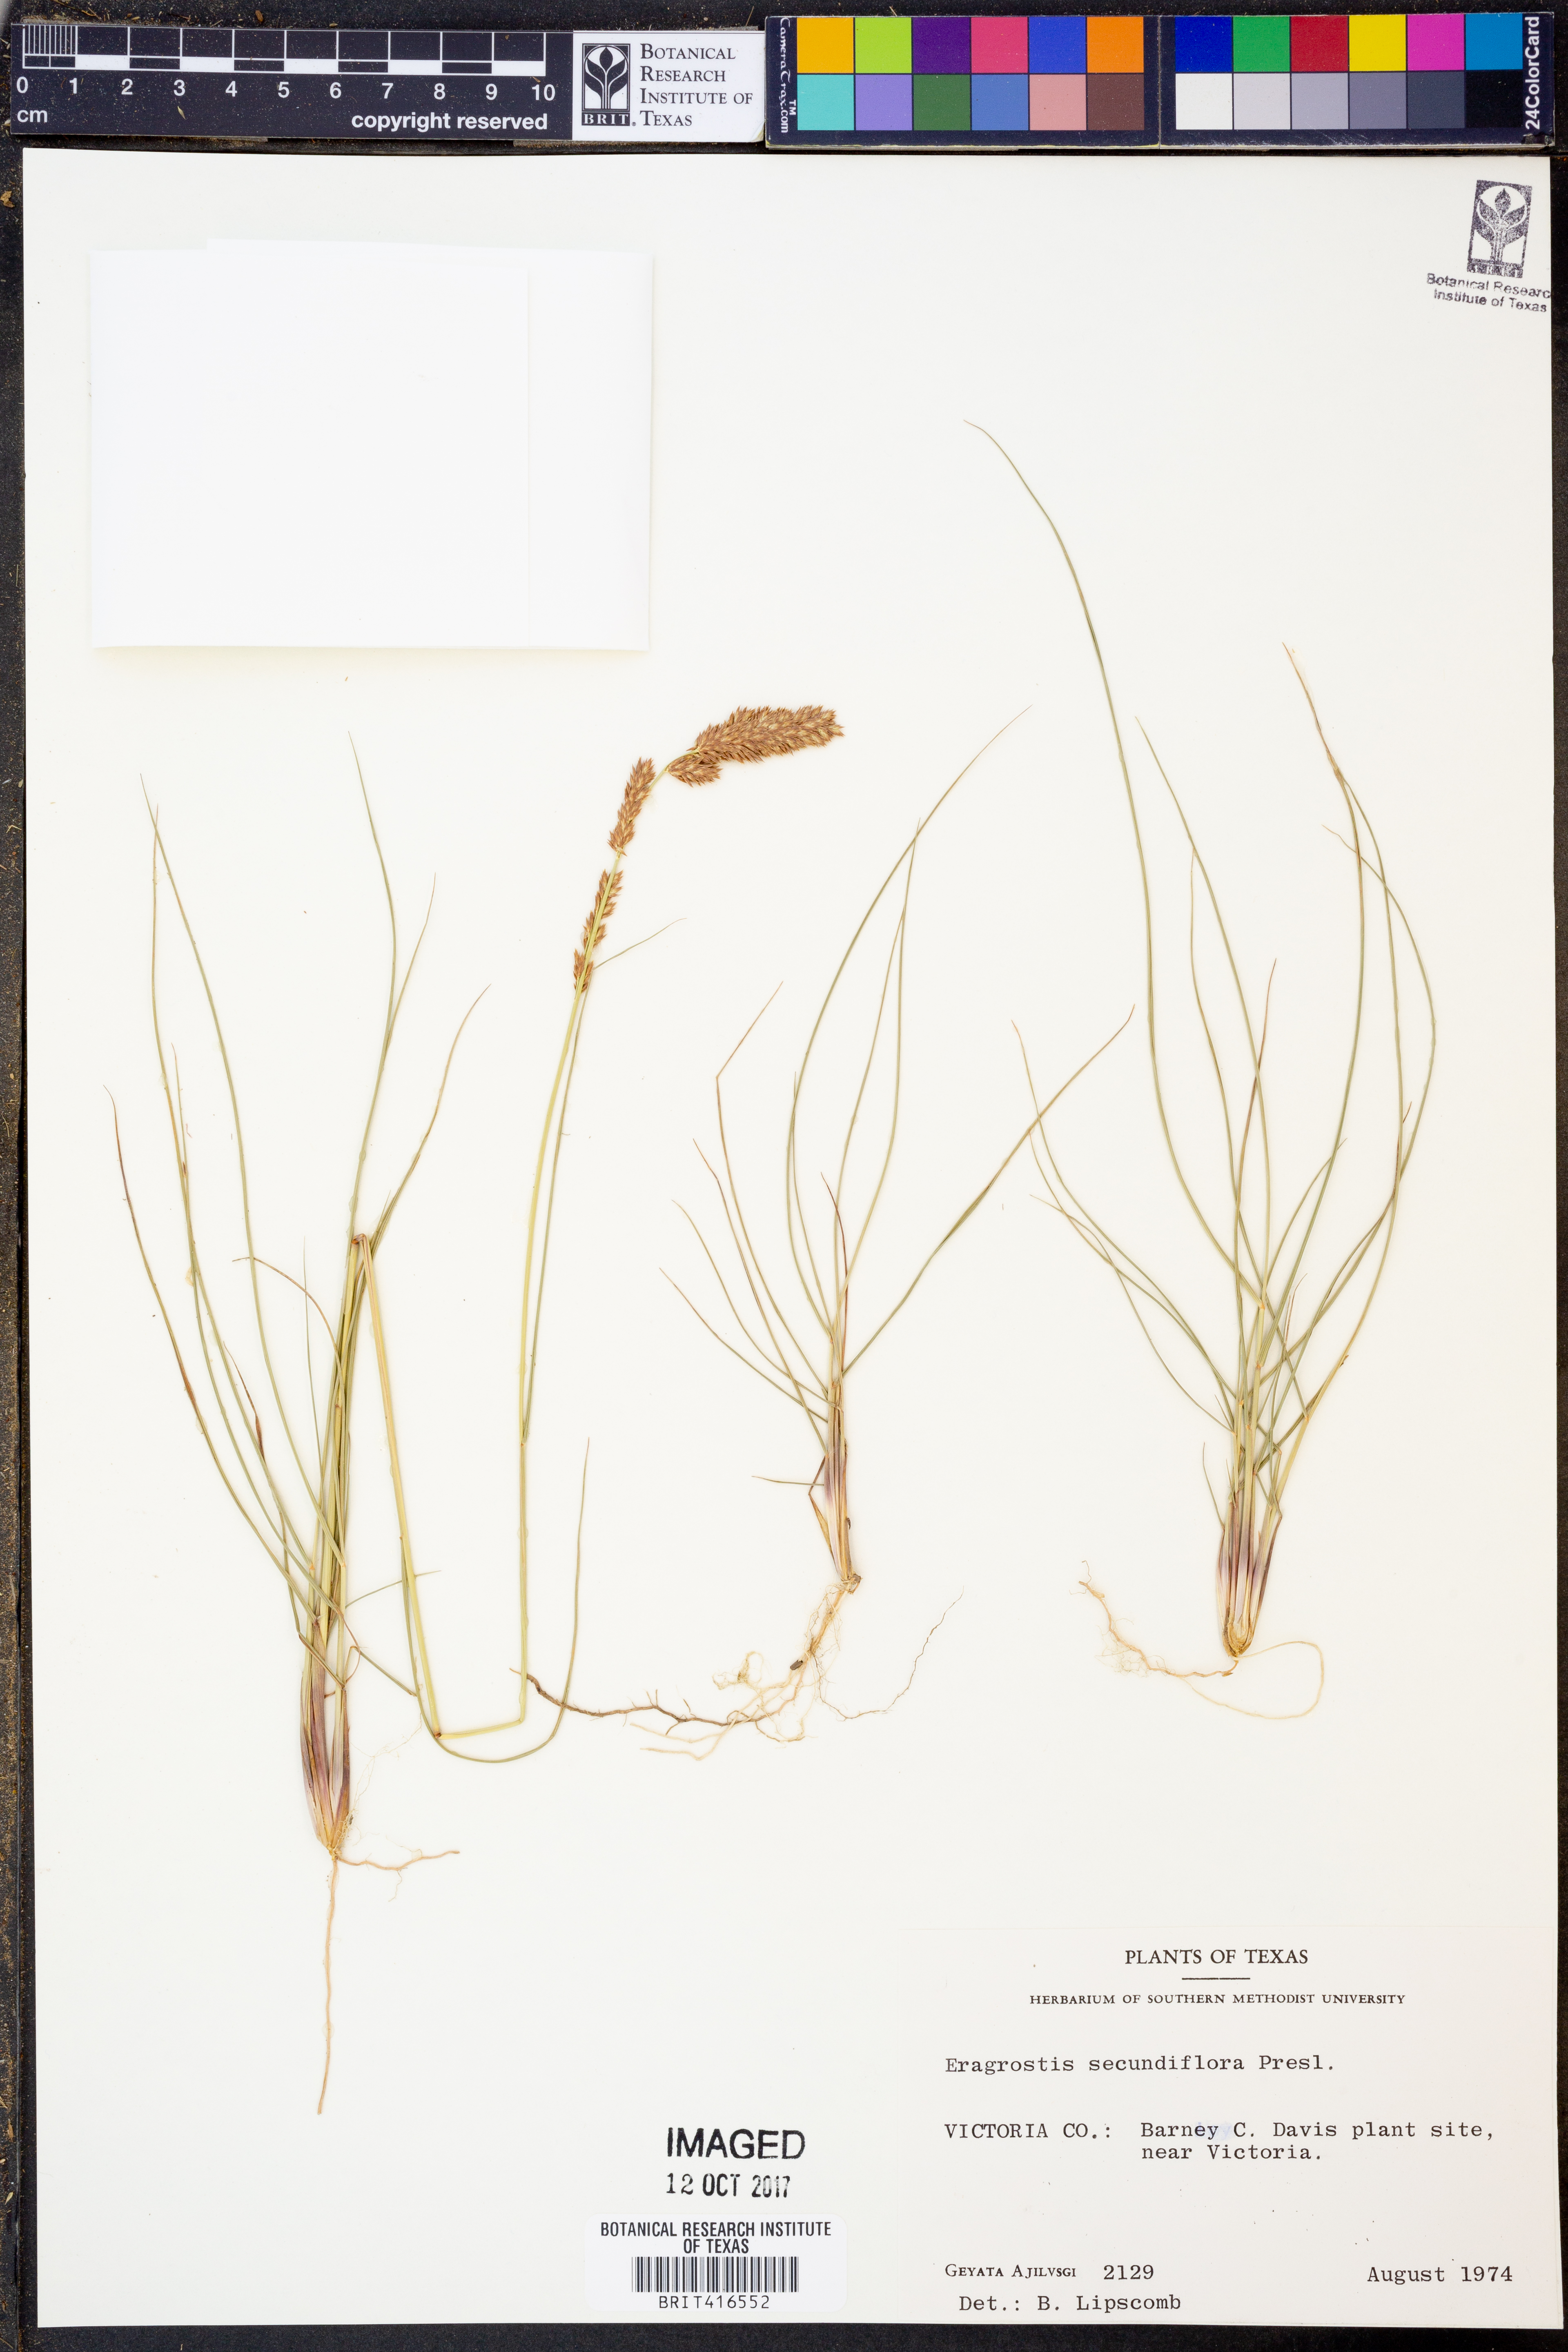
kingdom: Plantae
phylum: Tracheophyta
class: Liliopsida
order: Poales
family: Poaceae
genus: Eragrostis
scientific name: Eragrostis secundiflora
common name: Red love grass
